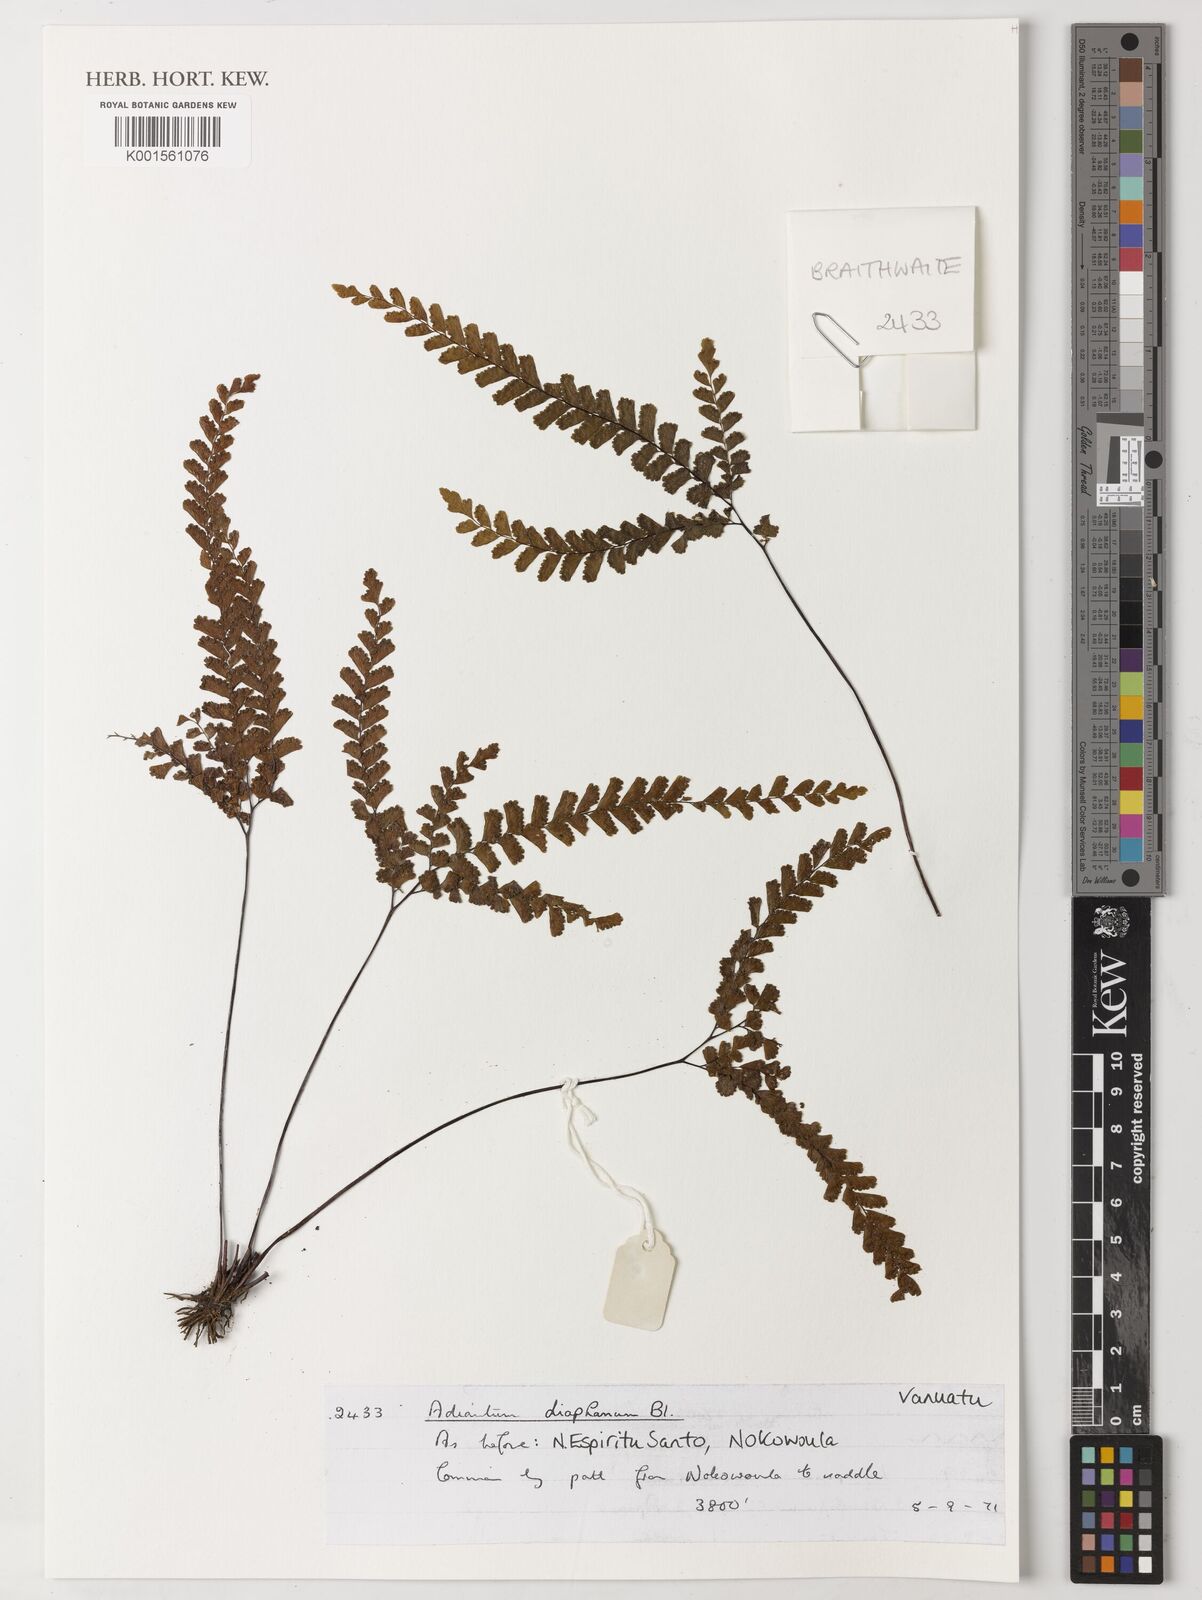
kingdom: Plantae
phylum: Tracheophyta
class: Polypodiopsida
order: Polypodiales
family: Pteridaceae
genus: Adiantum
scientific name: Adiantum diaphanum
